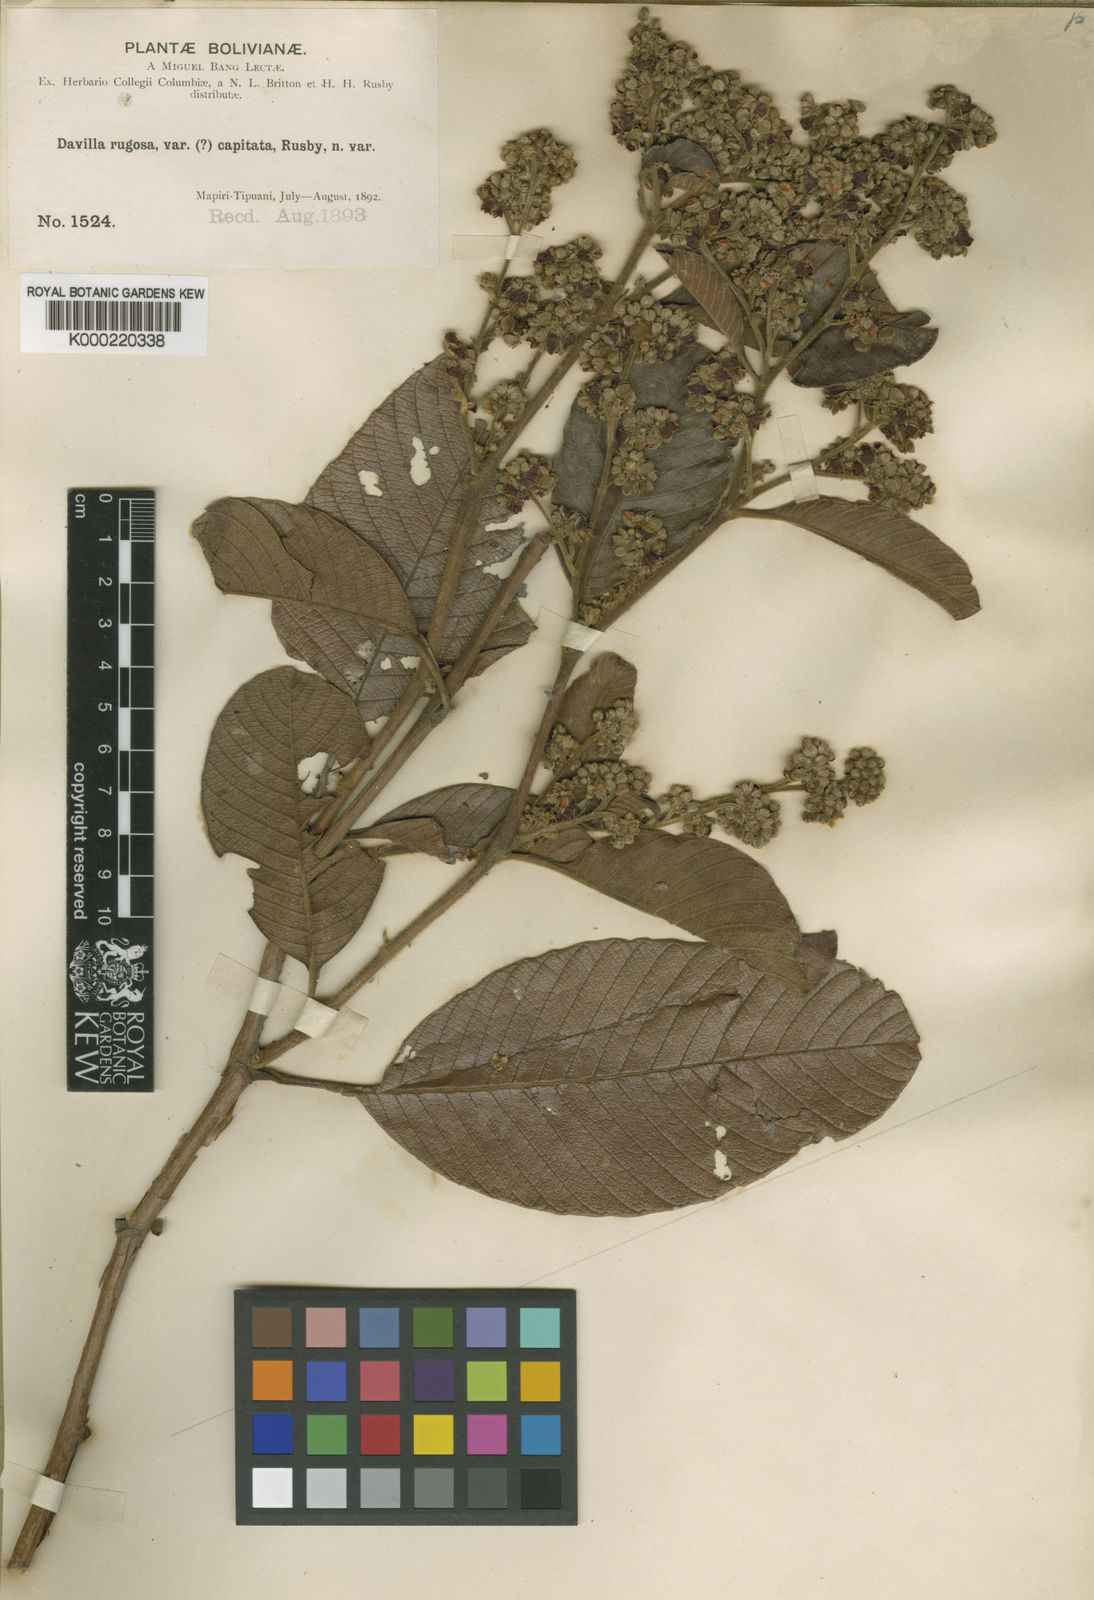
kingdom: Plantae
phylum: Tracheophyta
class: Magnoliopsida
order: Dilleniales
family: Dilleniaceae
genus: Davilla
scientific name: Davilla kunthii
